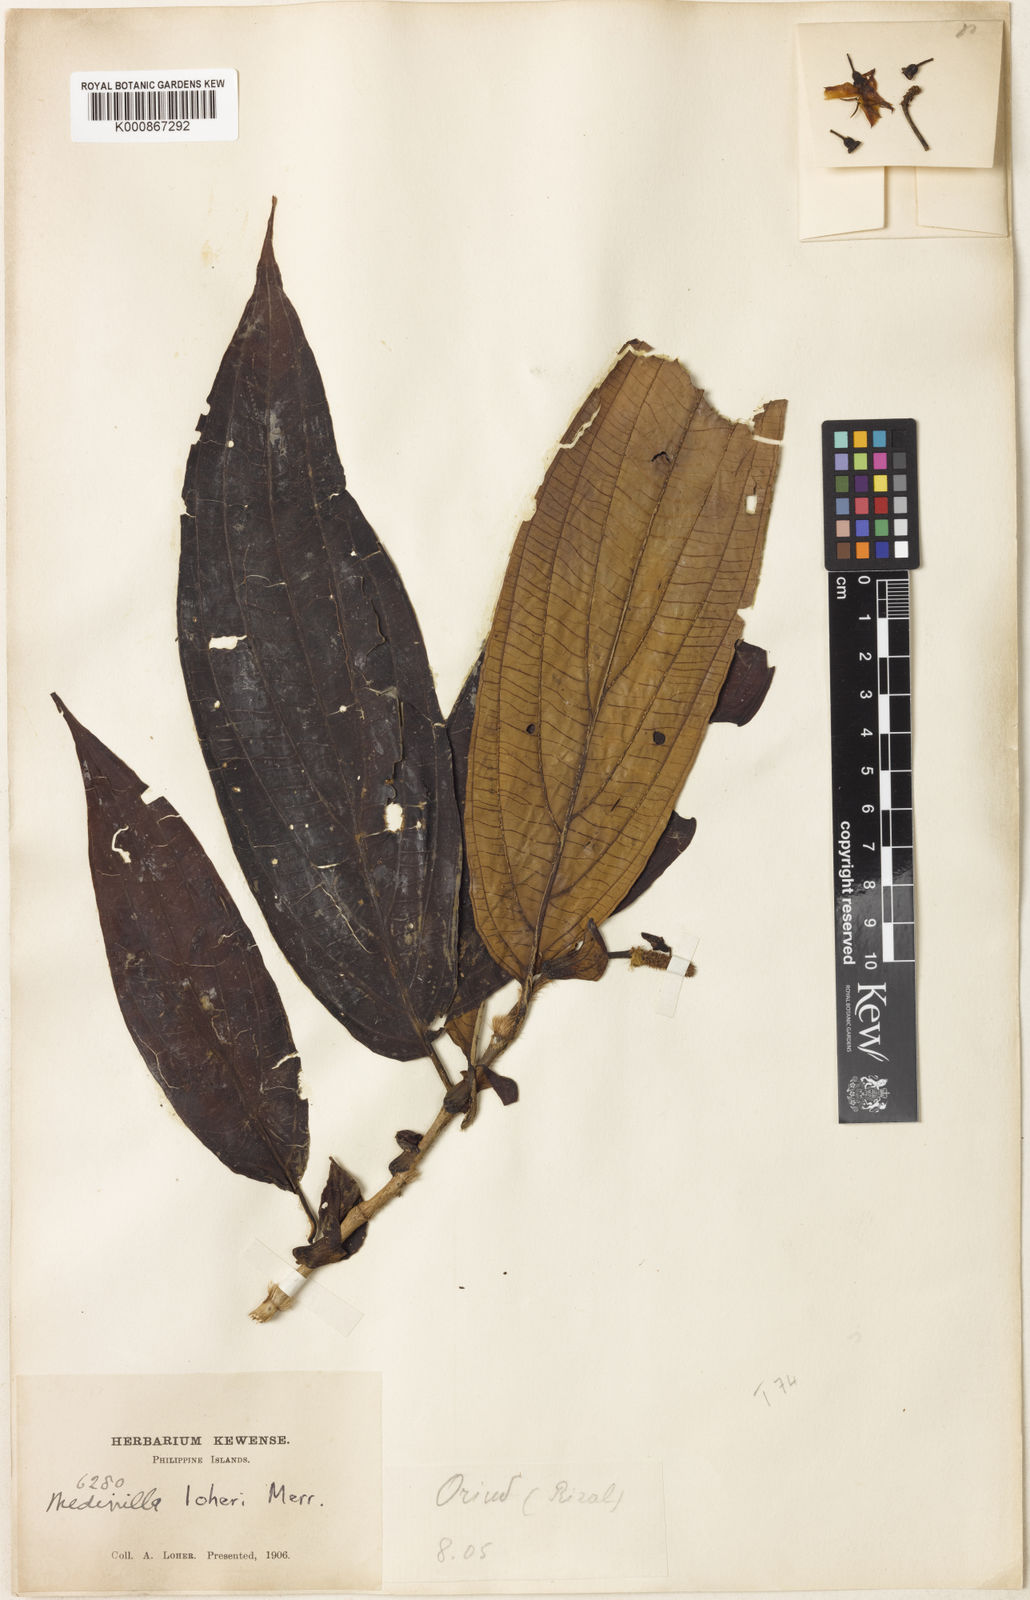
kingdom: Plantae
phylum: Tracheophyta
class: Magnoliopsida
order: Myrtales
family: Melastomataceae
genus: Medinilla
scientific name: Medinilla disparifolia
